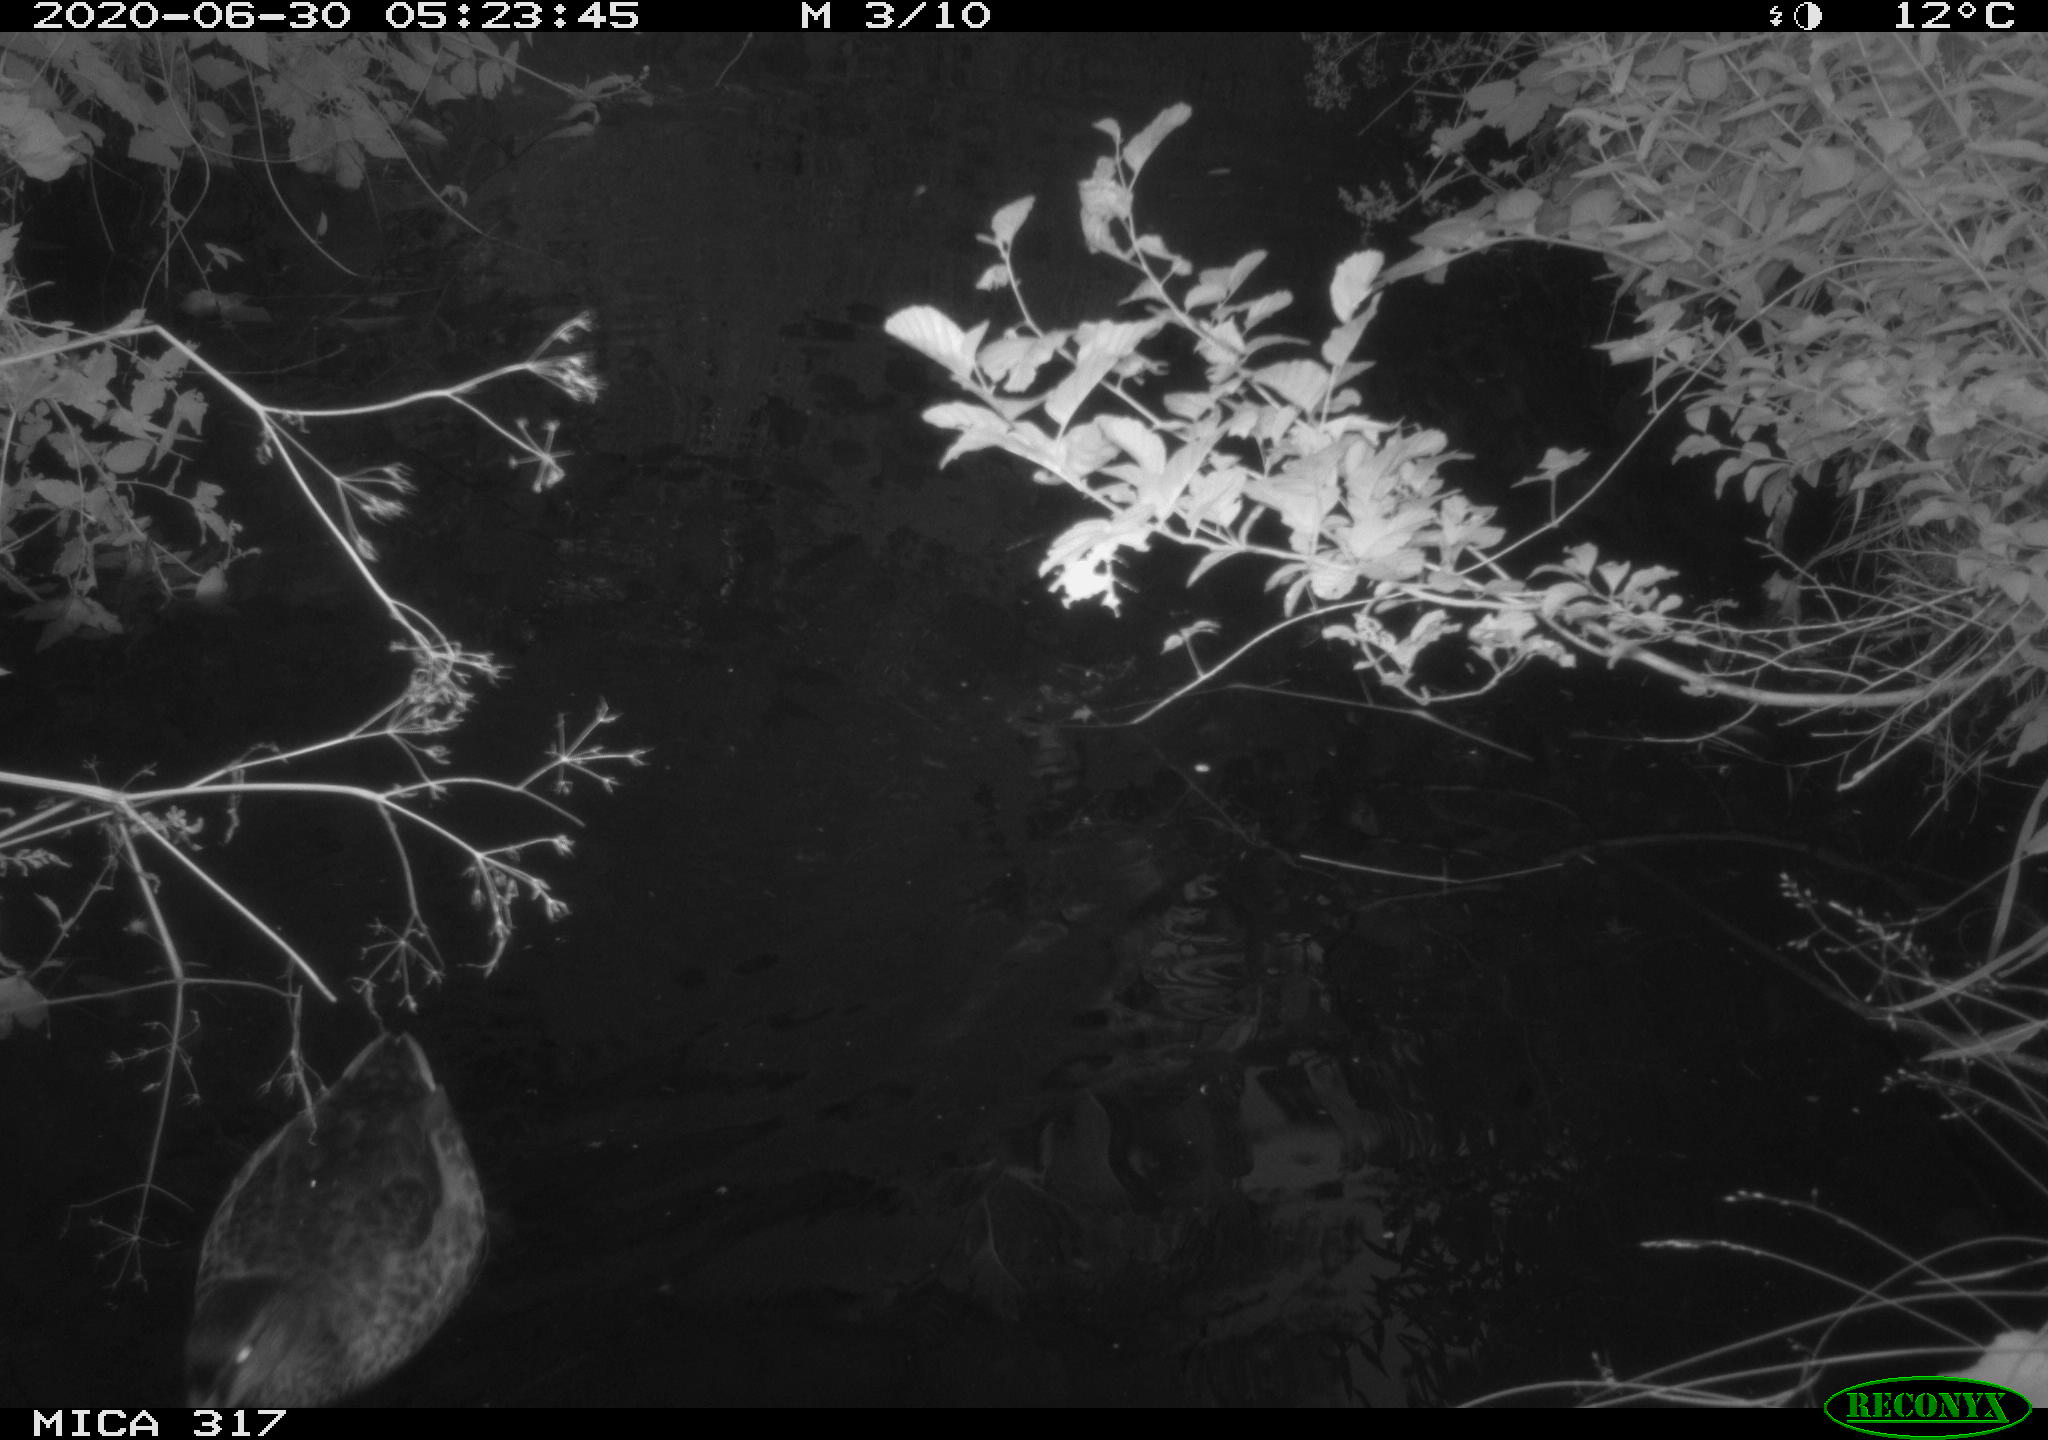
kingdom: Animalia
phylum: Chordata
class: Aves
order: Gruiformes
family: Rallidae
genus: Fulica
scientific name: Fulica atra
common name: Eurasian coot
